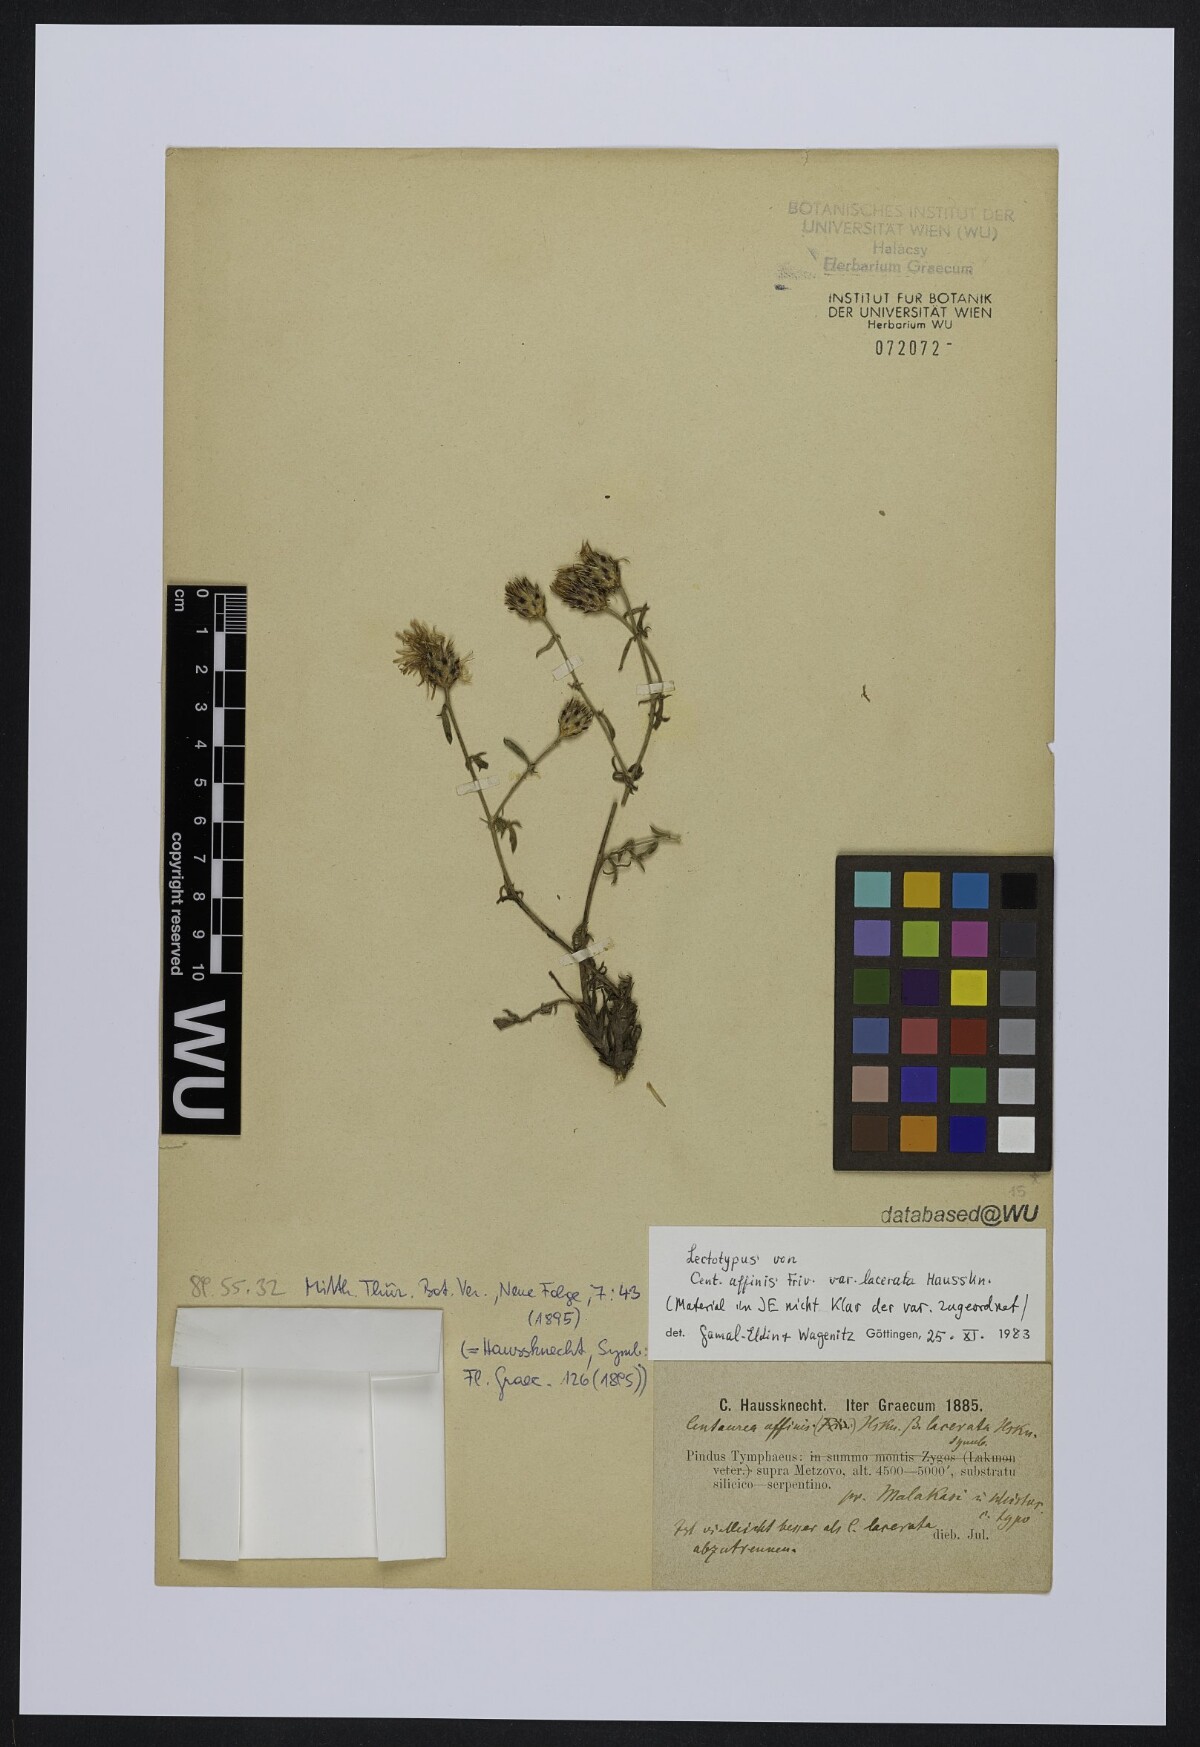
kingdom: Plantae
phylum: Tracheophyta
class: Magnoliopsida
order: Asterales
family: Asteraceae
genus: Centaurea
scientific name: Centaurea lacerata
